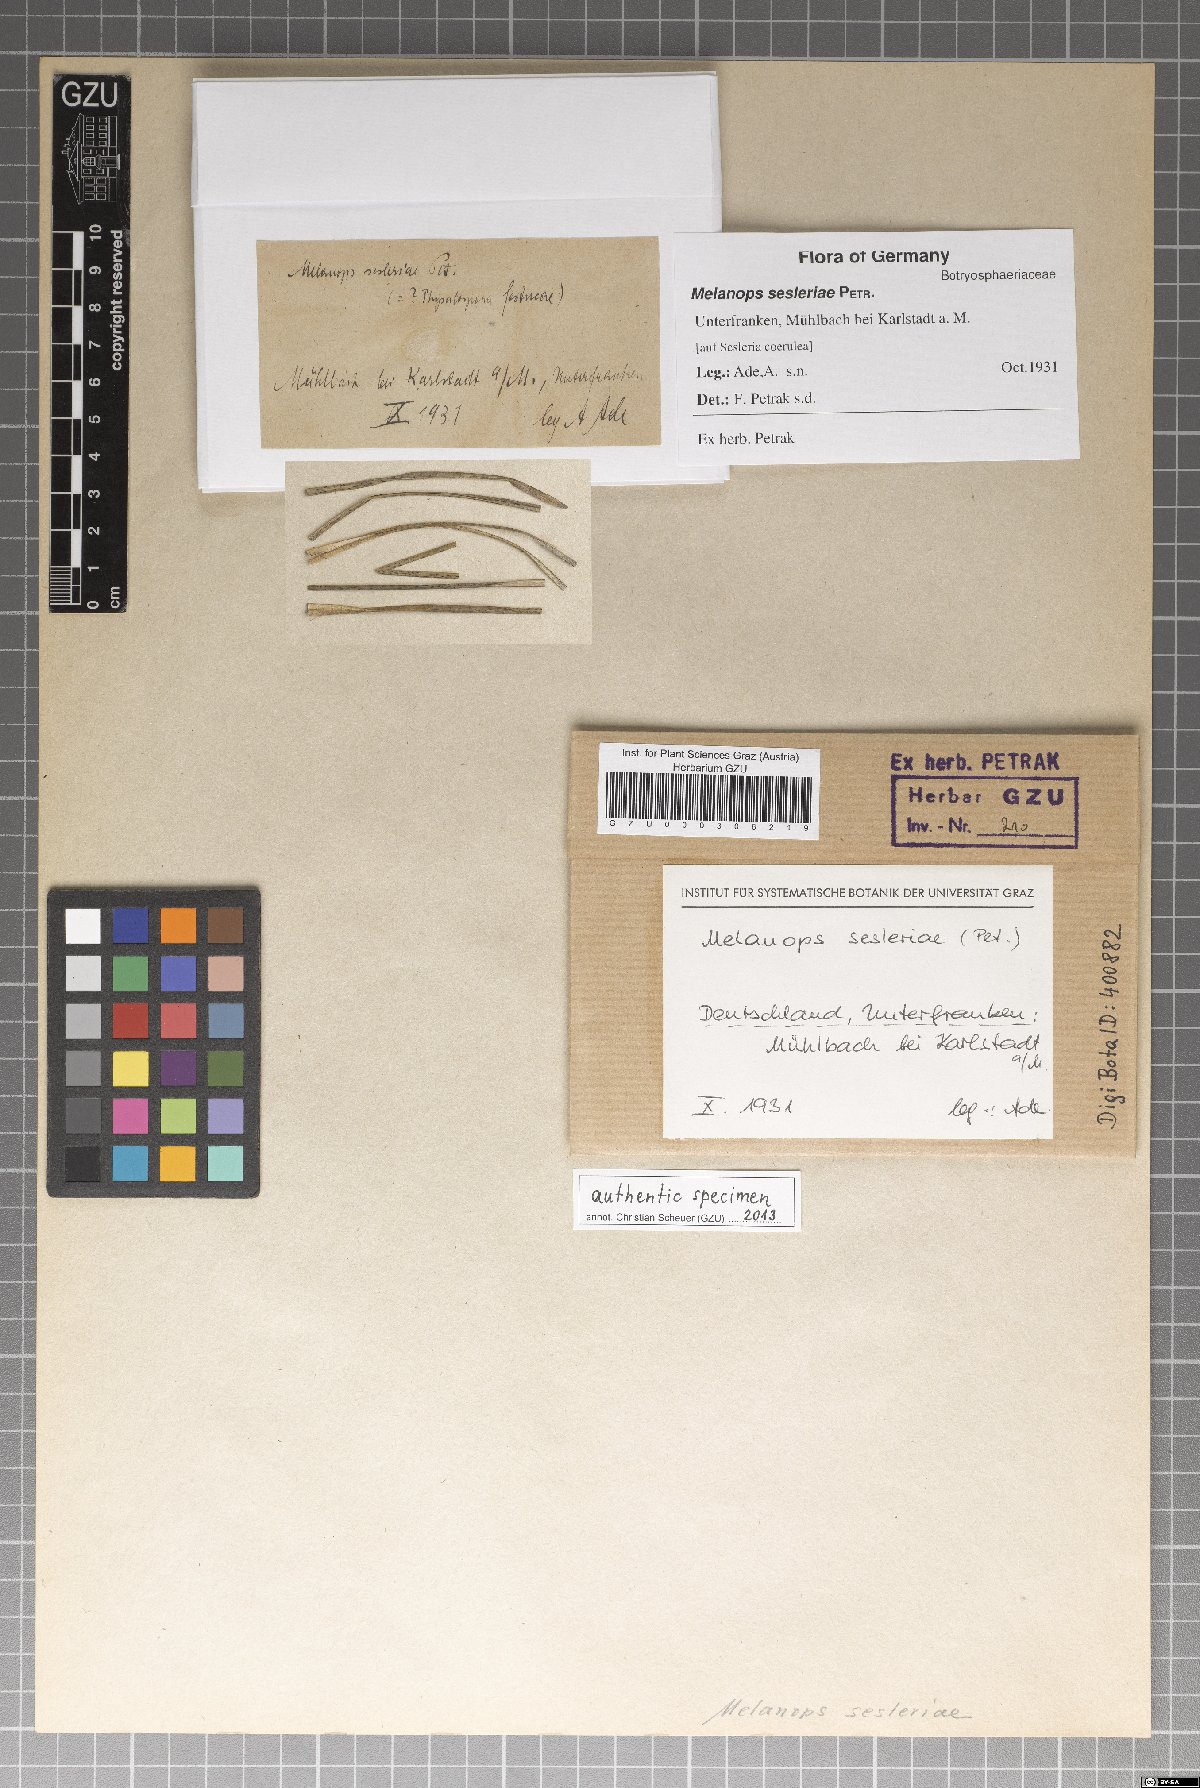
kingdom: Fungi
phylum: Ascomycota
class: Dothideomycetes
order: Botryosphaeriales
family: Botryosphaeriaceae
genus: Melanops
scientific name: Melanops sesleriae
